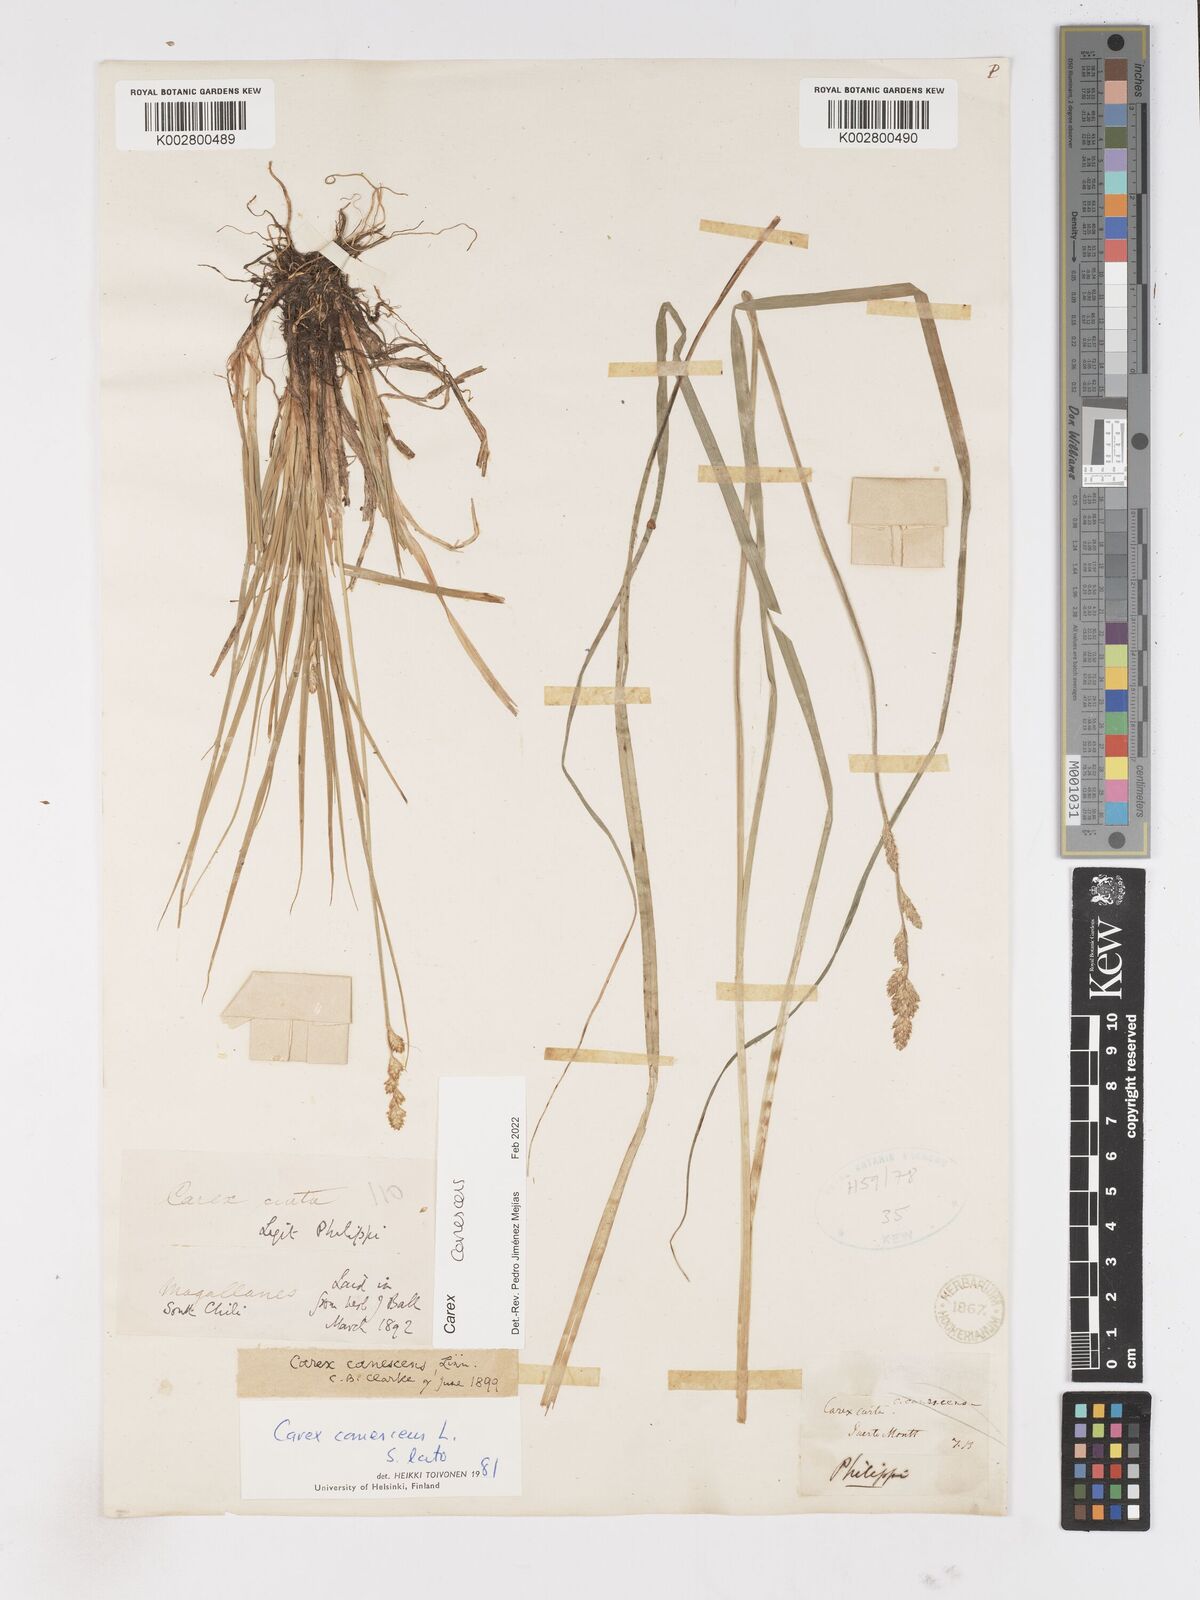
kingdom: Plantae
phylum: Tracheophyta
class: Liliopsida
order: Poales
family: Cyperaceae
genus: Carex
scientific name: Carex curta
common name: White sedge
